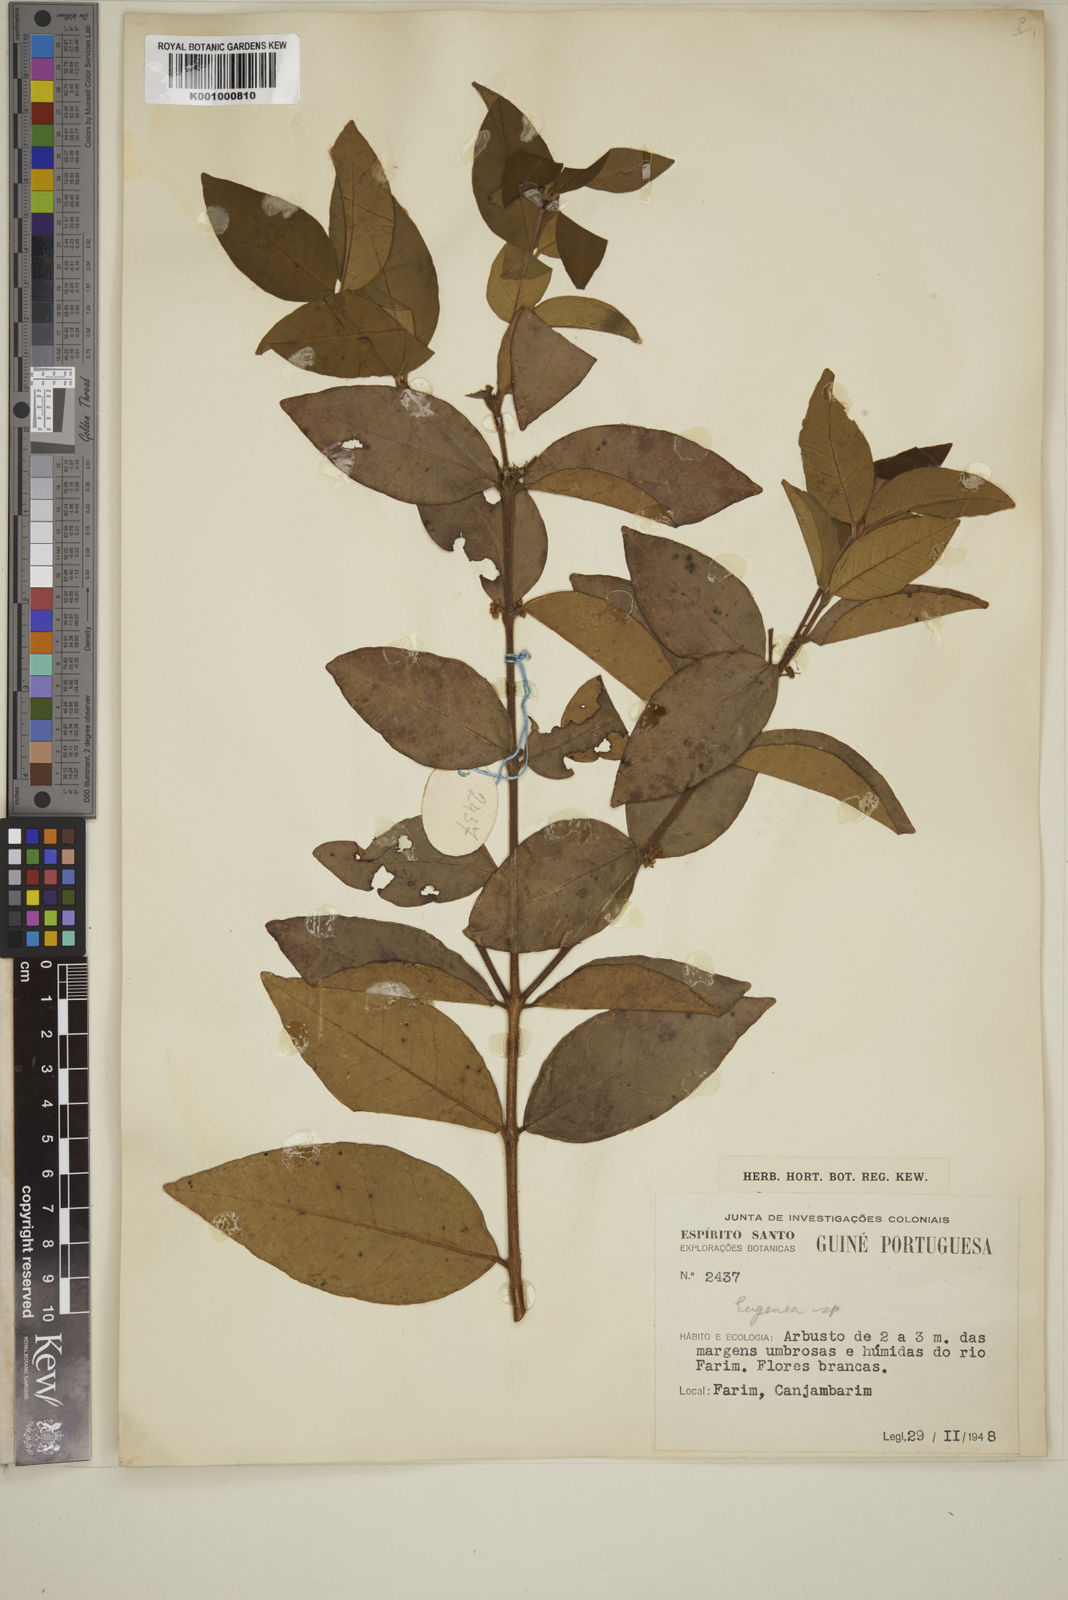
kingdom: Plantae
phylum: Tracheophyta
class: Magnoliopsida
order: Myrtales
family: Myrtaceae
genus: Eugenia
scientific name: Eugenia calophylloides
